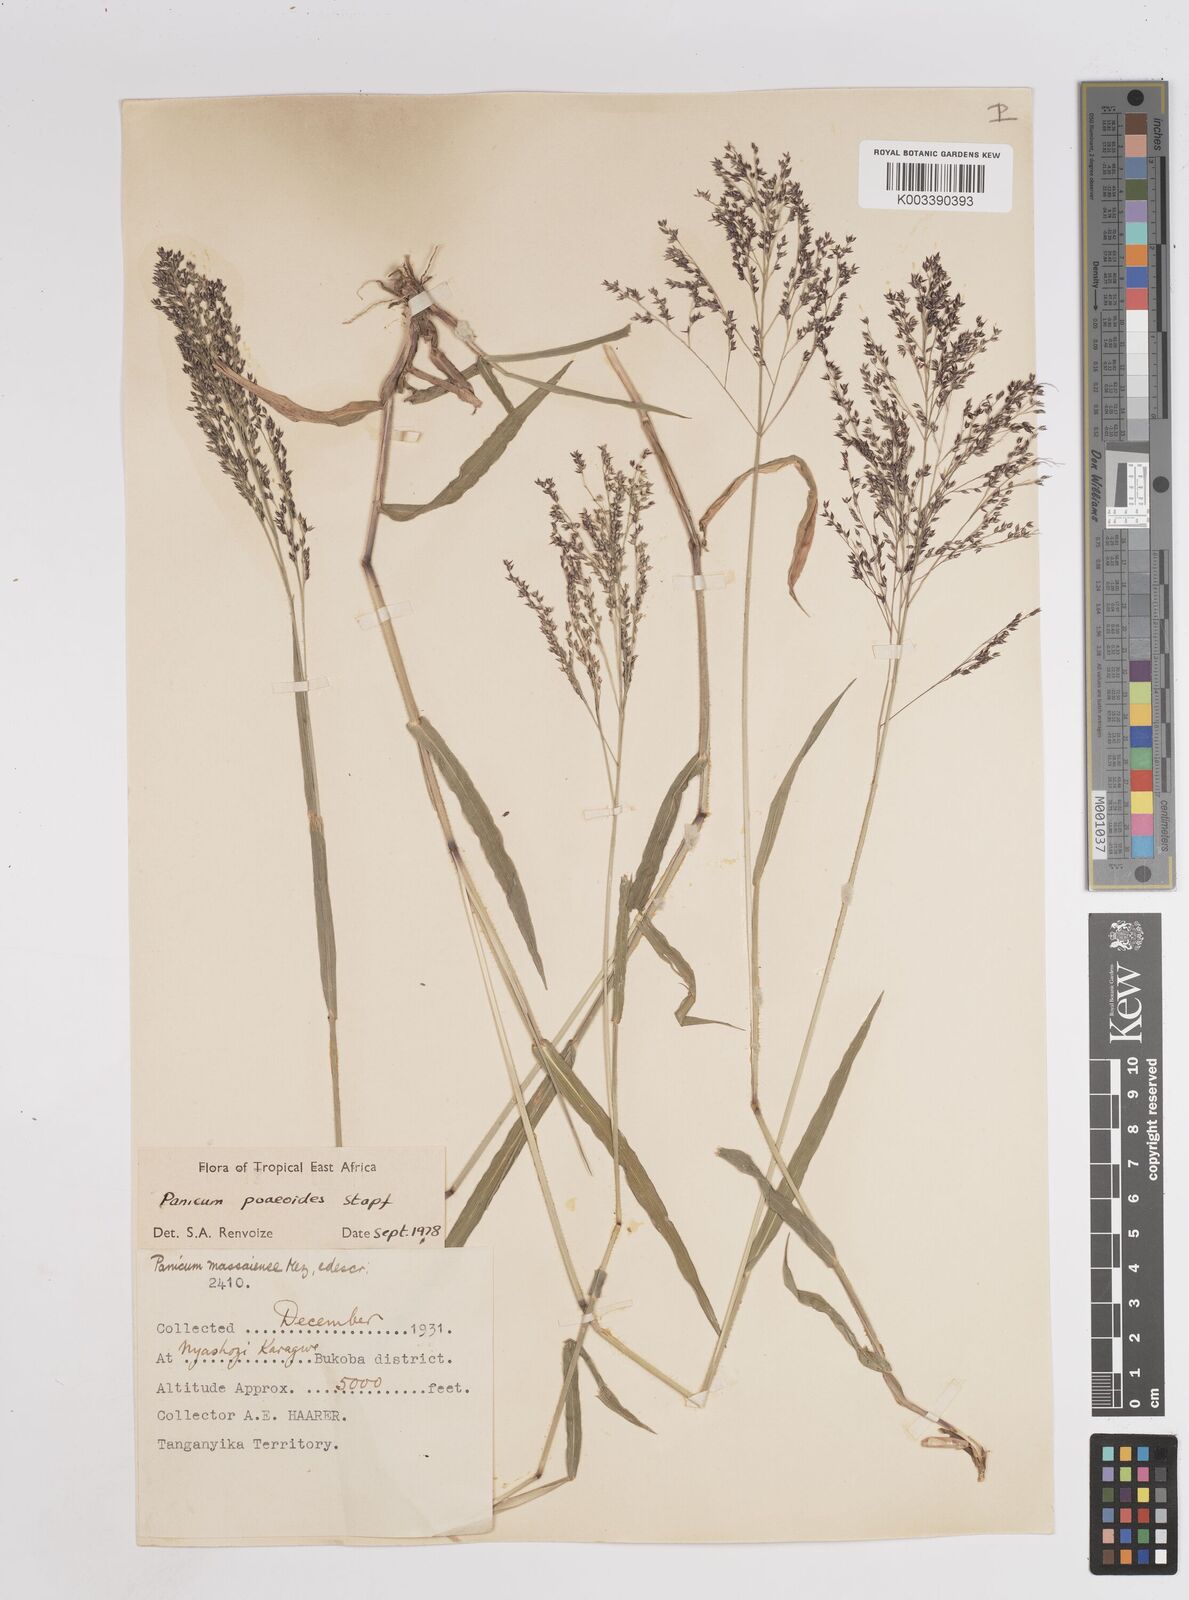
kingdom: Plantae
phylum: Tracheophyta
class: Liliopsida
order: Poales
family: Poaceae
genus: Panicum
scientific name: Panicum
